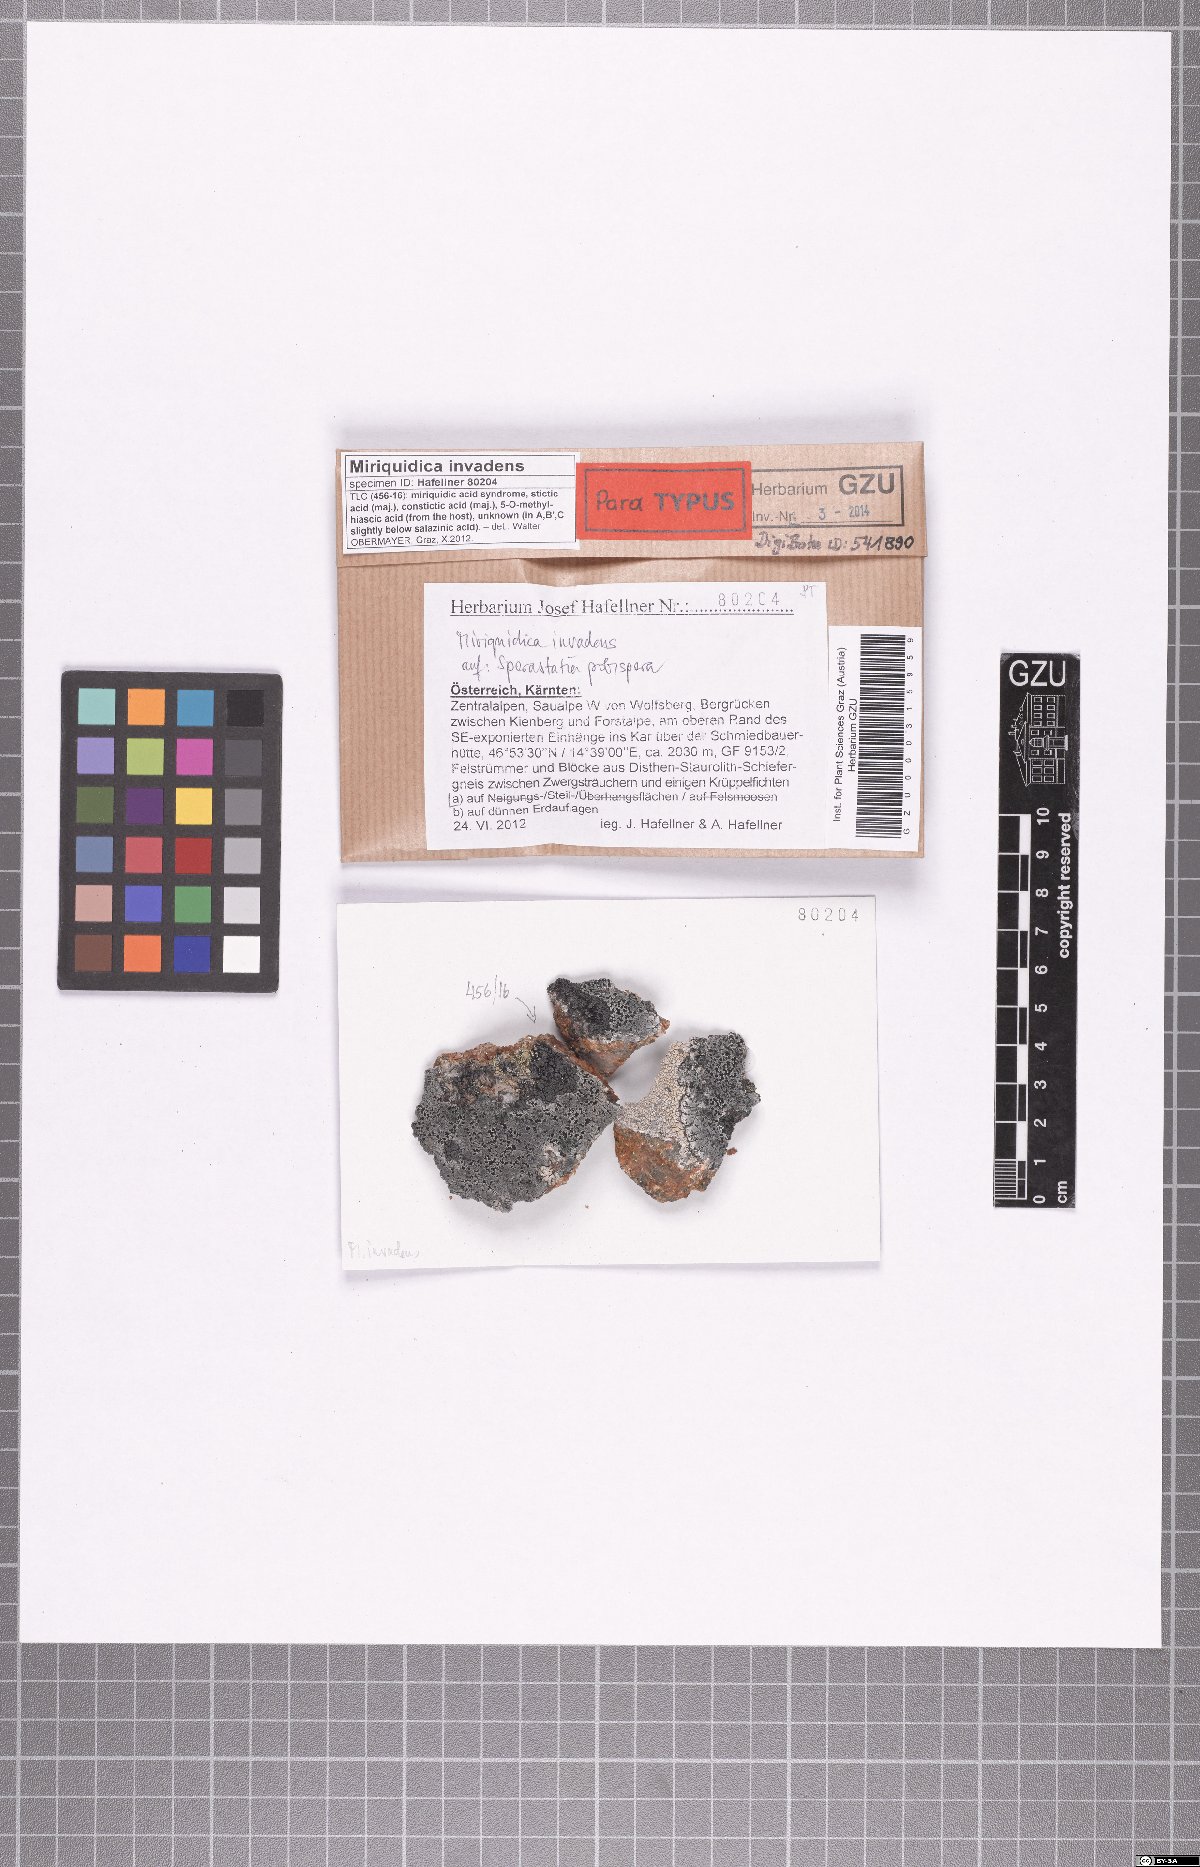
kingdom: Fungi
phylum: Ascomycota
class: Lecanoromycetes
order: Lecanorales
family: Lecanoraceae
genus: Miriquidica
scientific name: Miriquidica invadens
